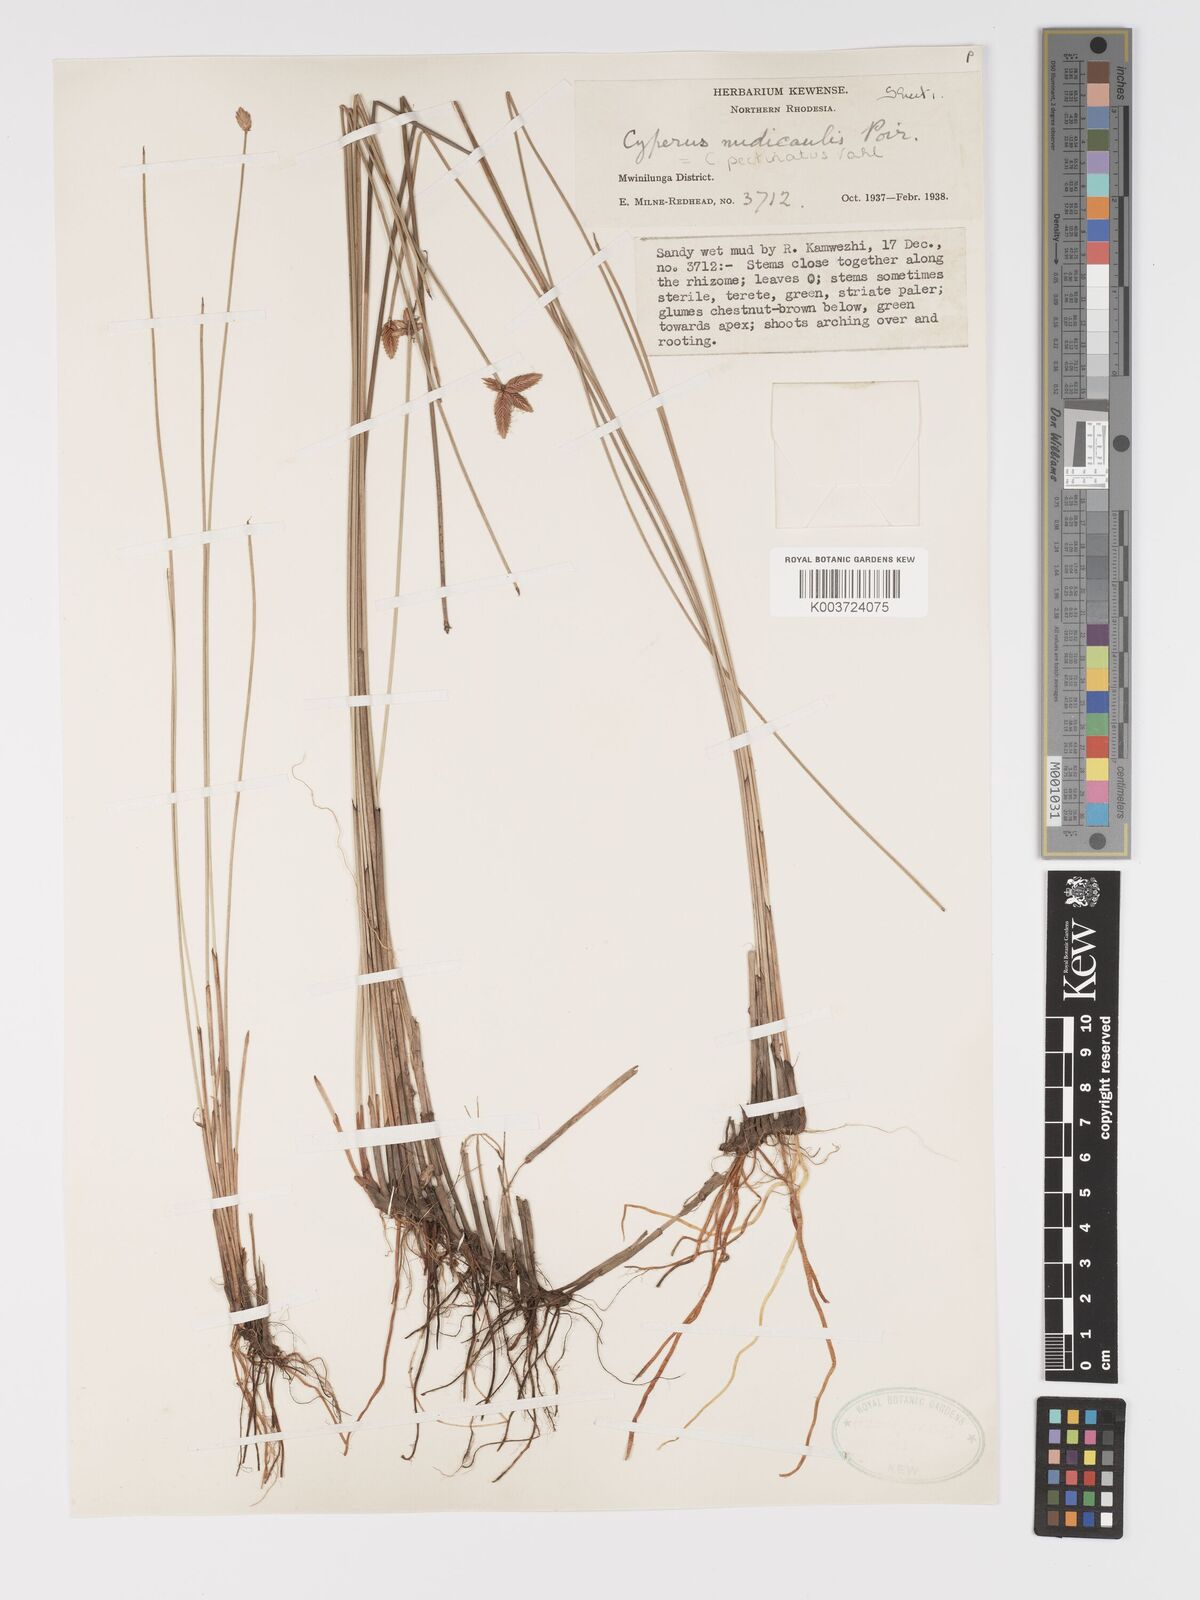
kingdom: Plantae
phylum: Tracheophyta
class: Liliopsida
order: Poales
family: Cyperaceae
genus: Cyperus
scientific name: Cyperus compressus
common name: Poorland flatsedge
